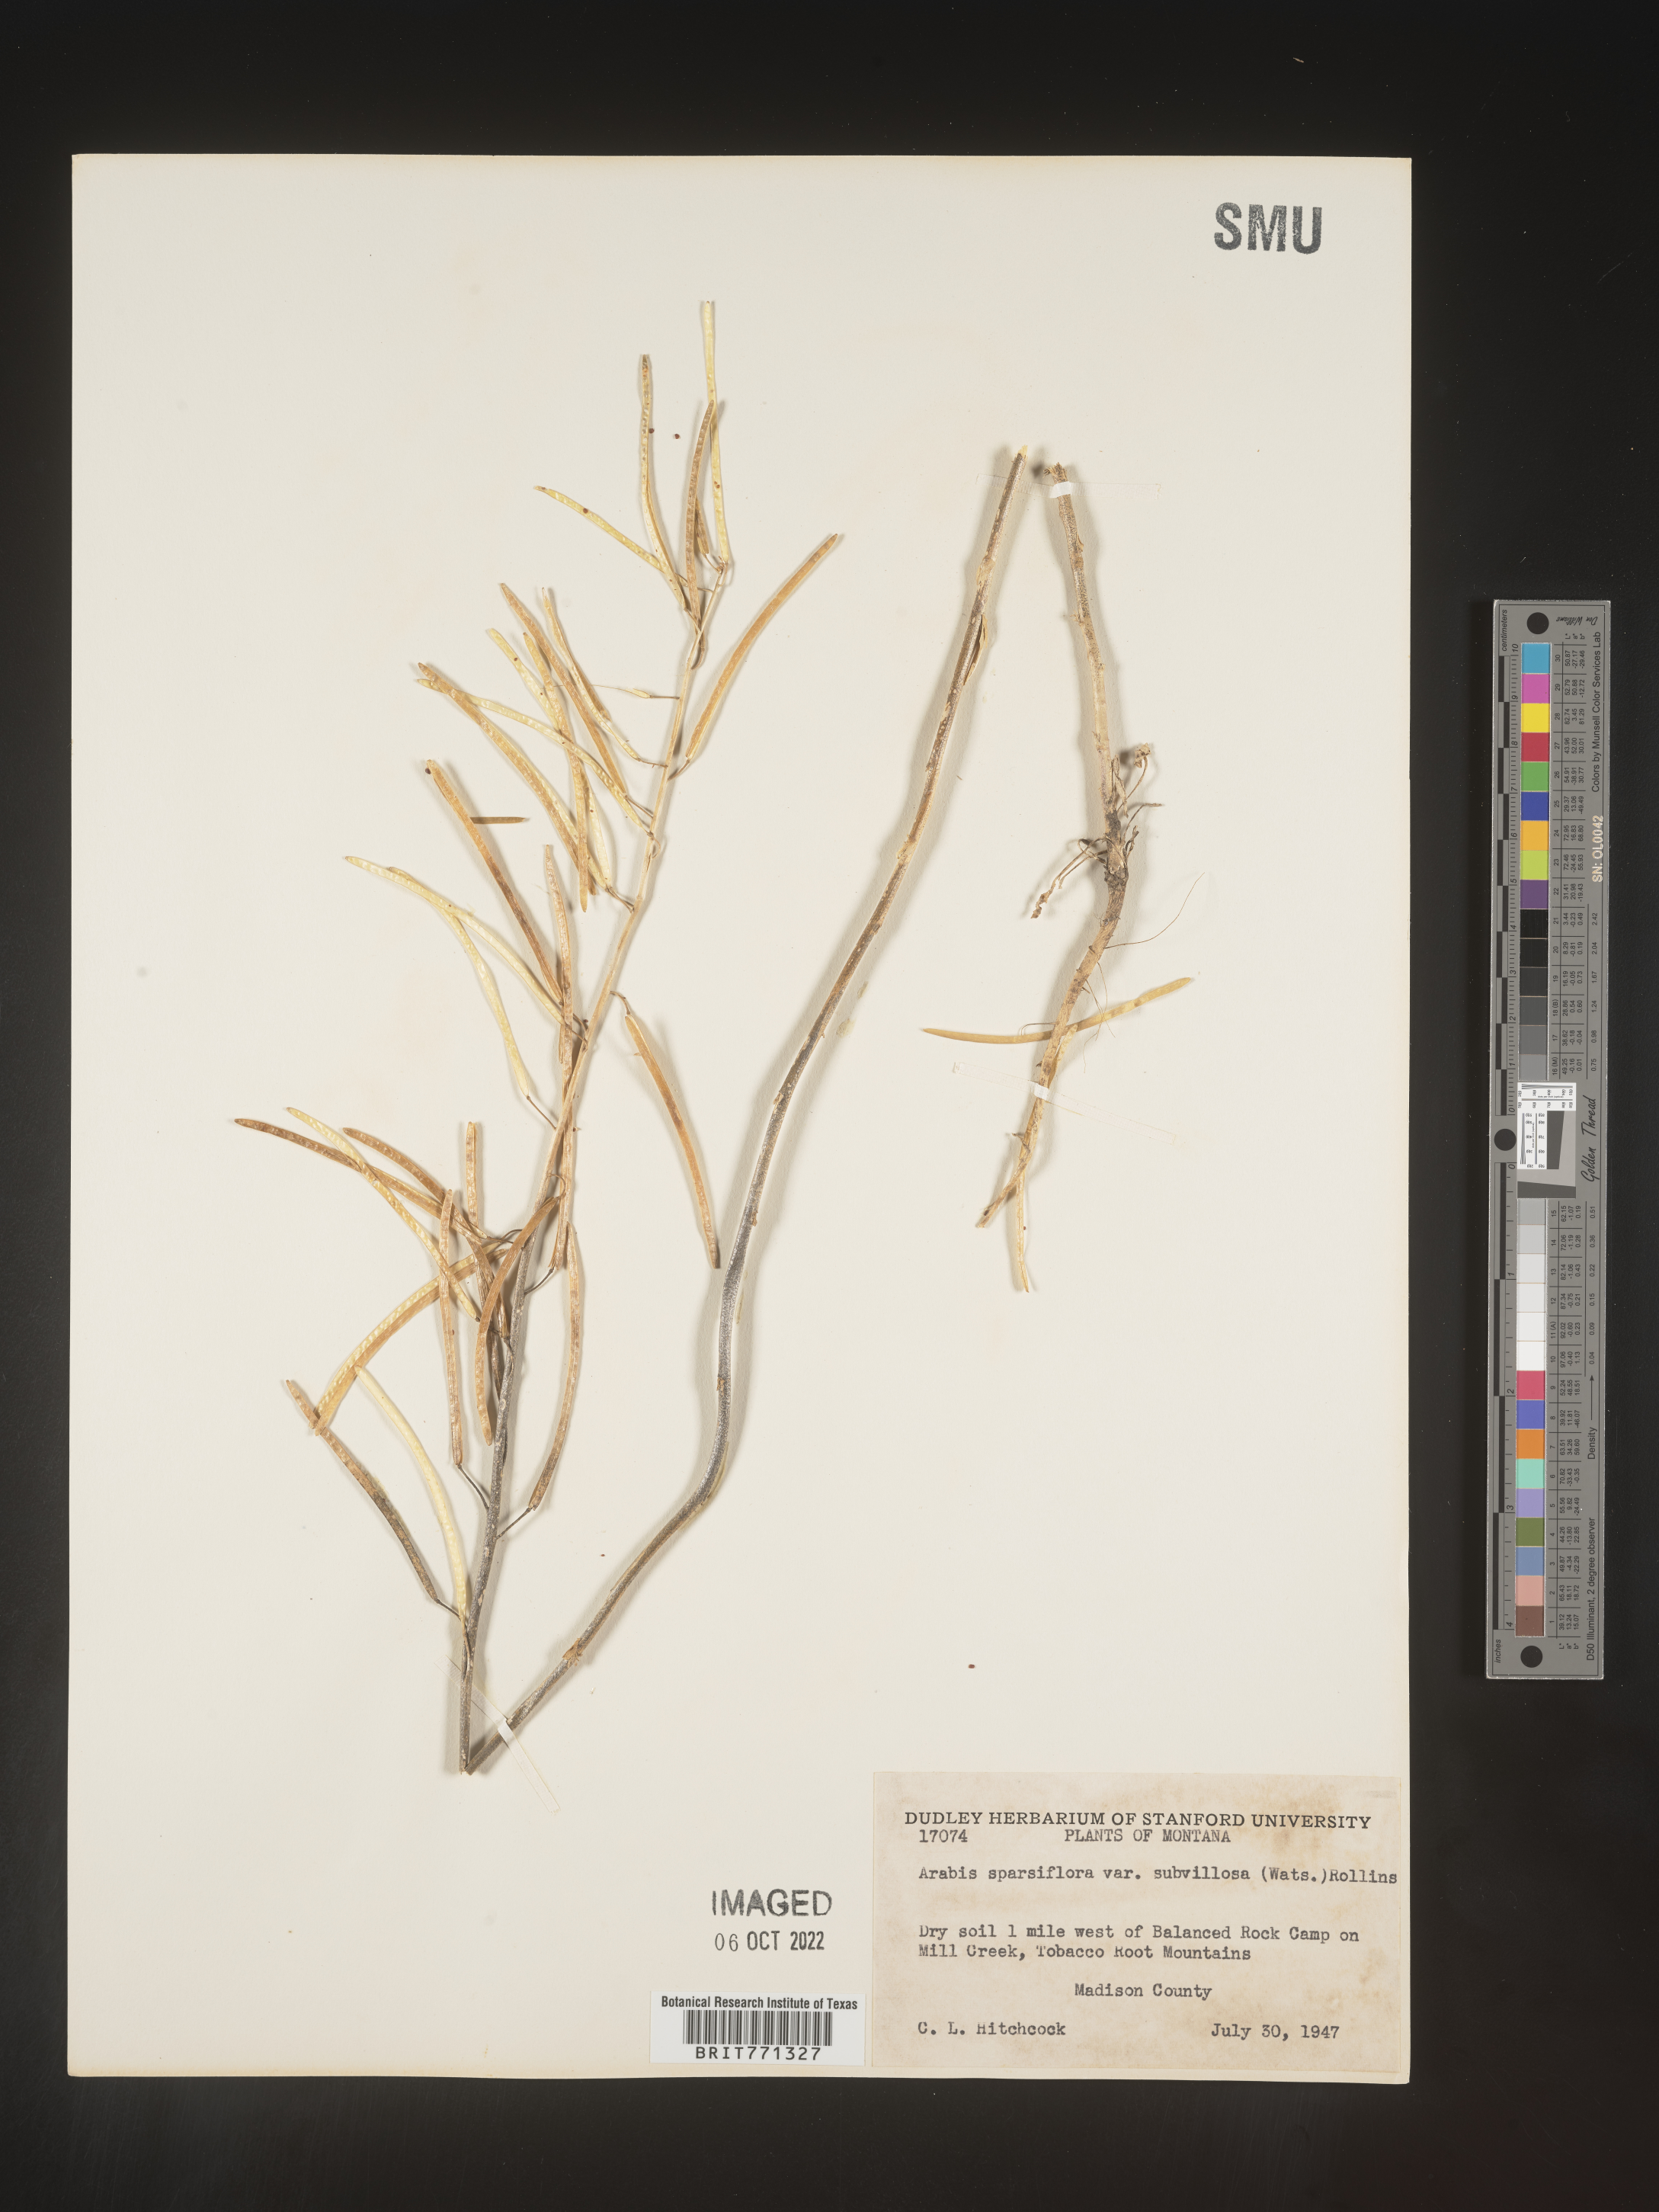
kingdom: Plantae
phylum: Tracheophyta
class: Magnoliopsida
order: Brassicales
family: Brassicaceae
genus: Arabis
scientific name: Arabis
